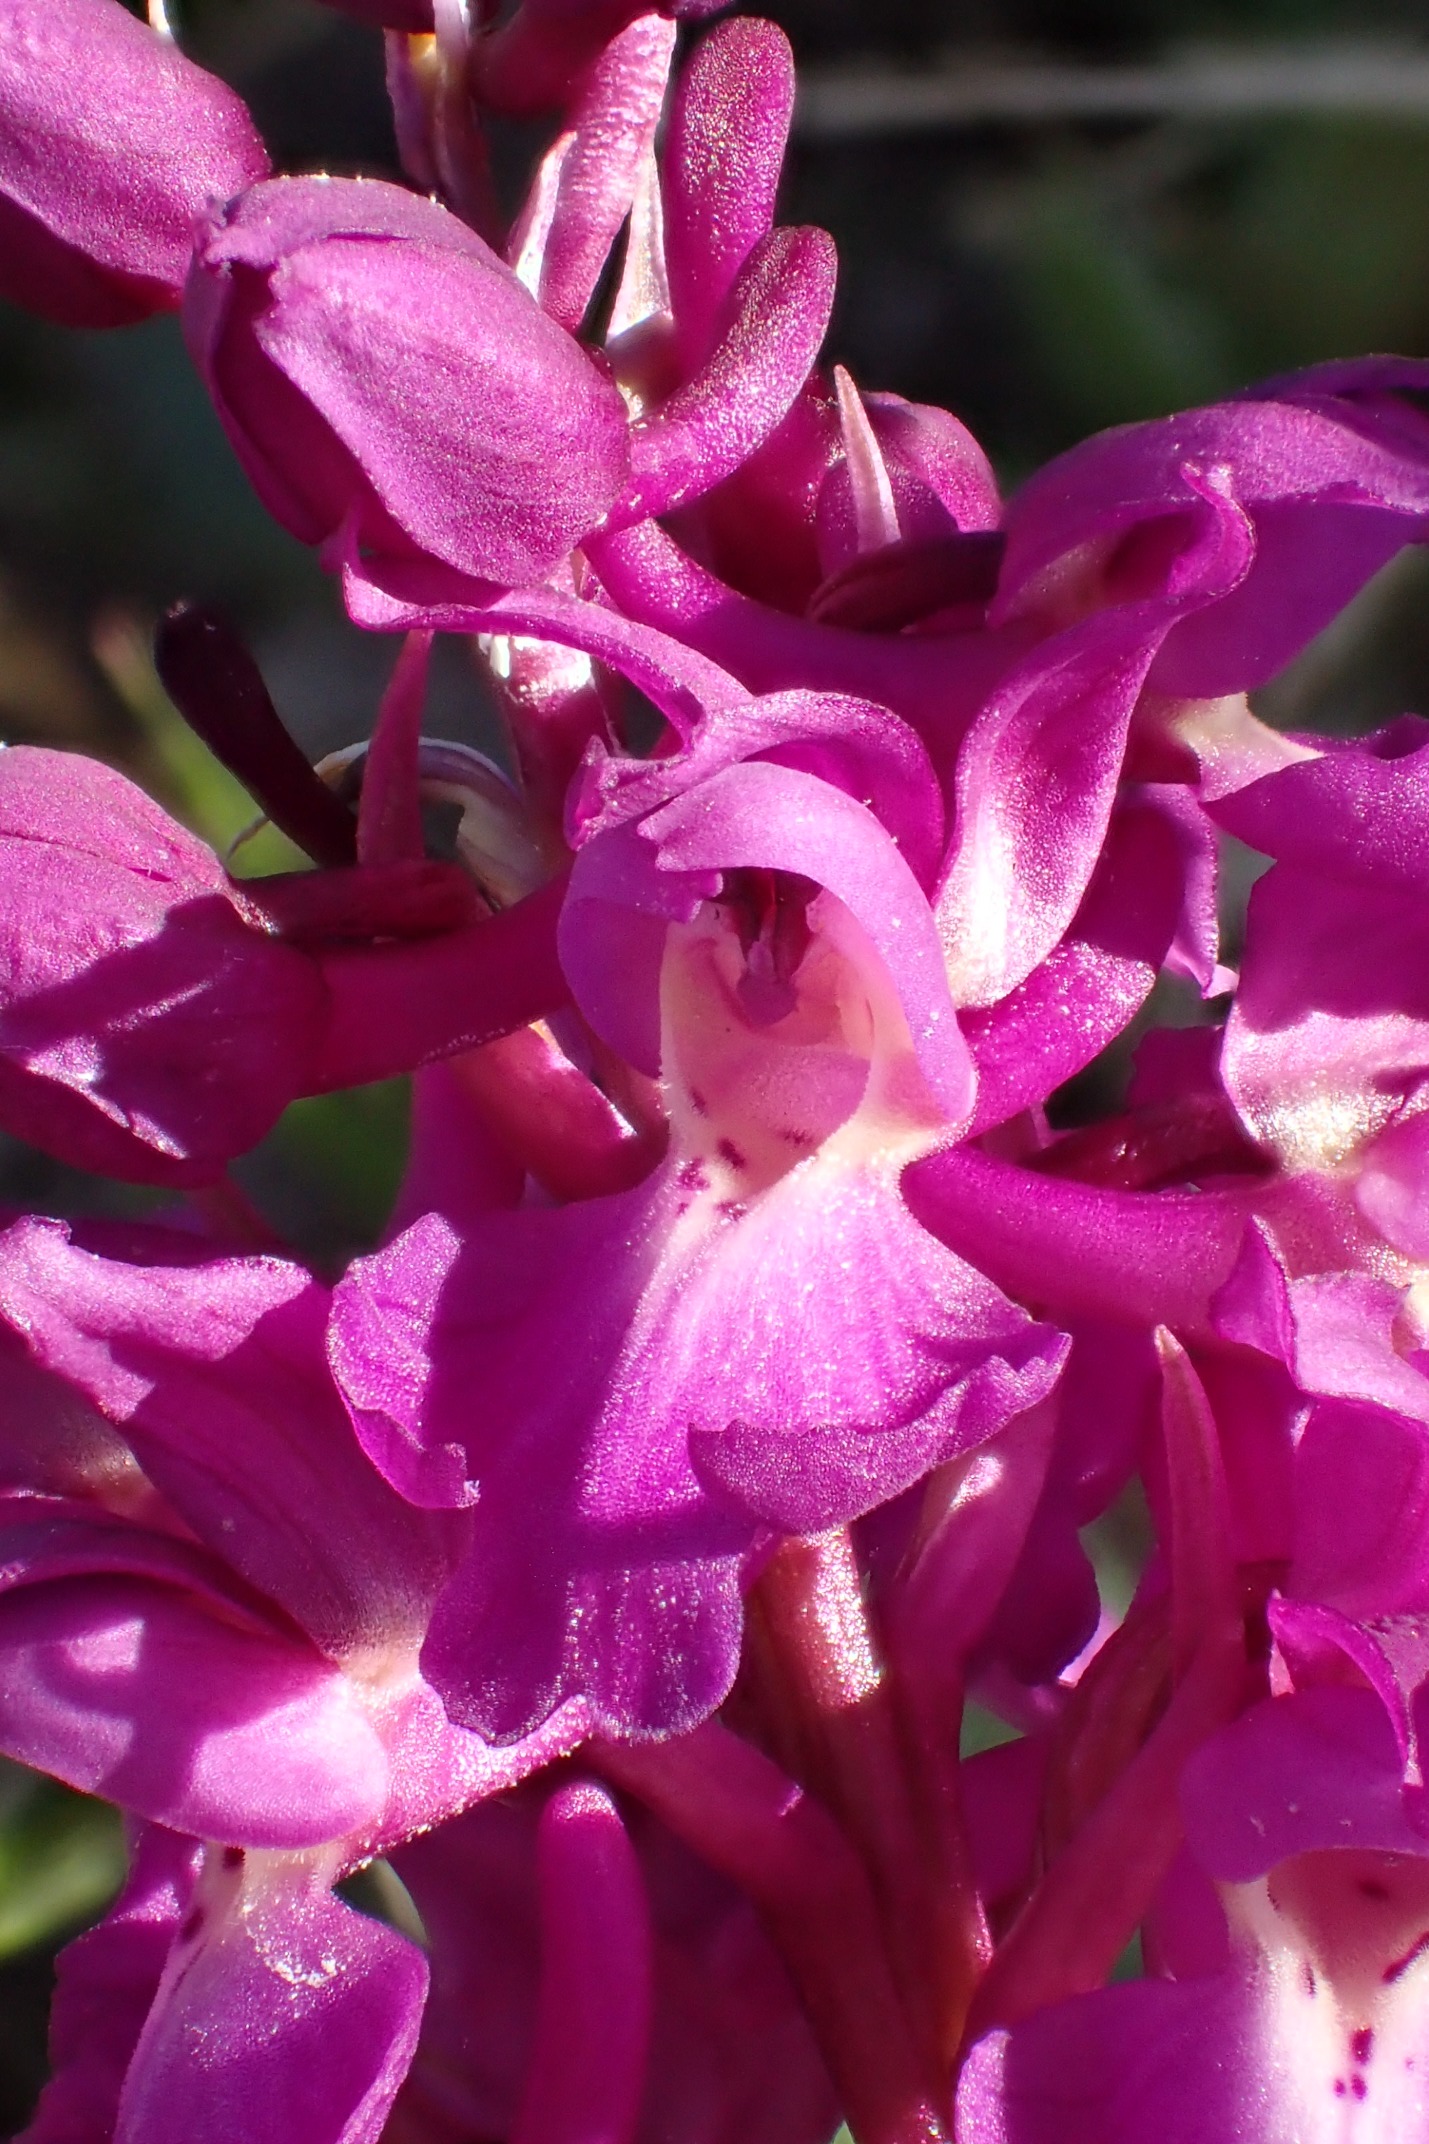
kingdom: Plantae
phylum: Tracheophyta
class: Liliopsida
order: Asparagales
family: Orchidaceae
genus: Orchis
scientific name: Orchis mascula
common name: Tyndakset gøgeurt
